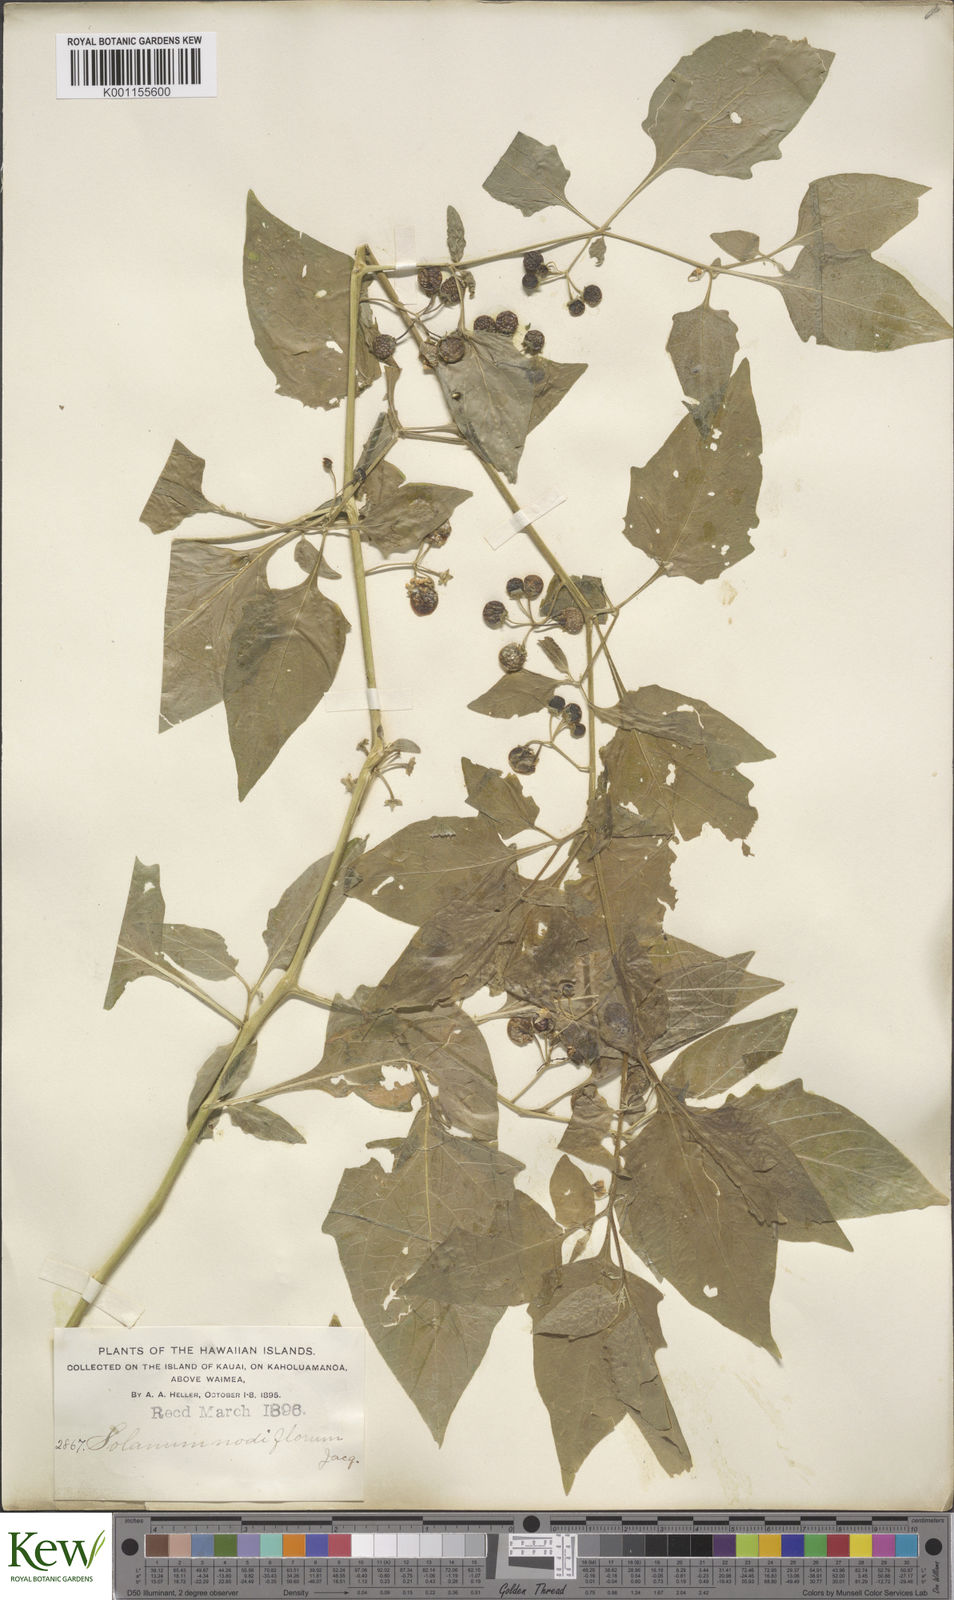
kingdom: Plantae
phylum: Tracheophyta
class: Magnoliopsida
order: Solanales
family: Solanaceae
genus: Solanum
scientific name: Solanum americanum
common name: American black nightshade
